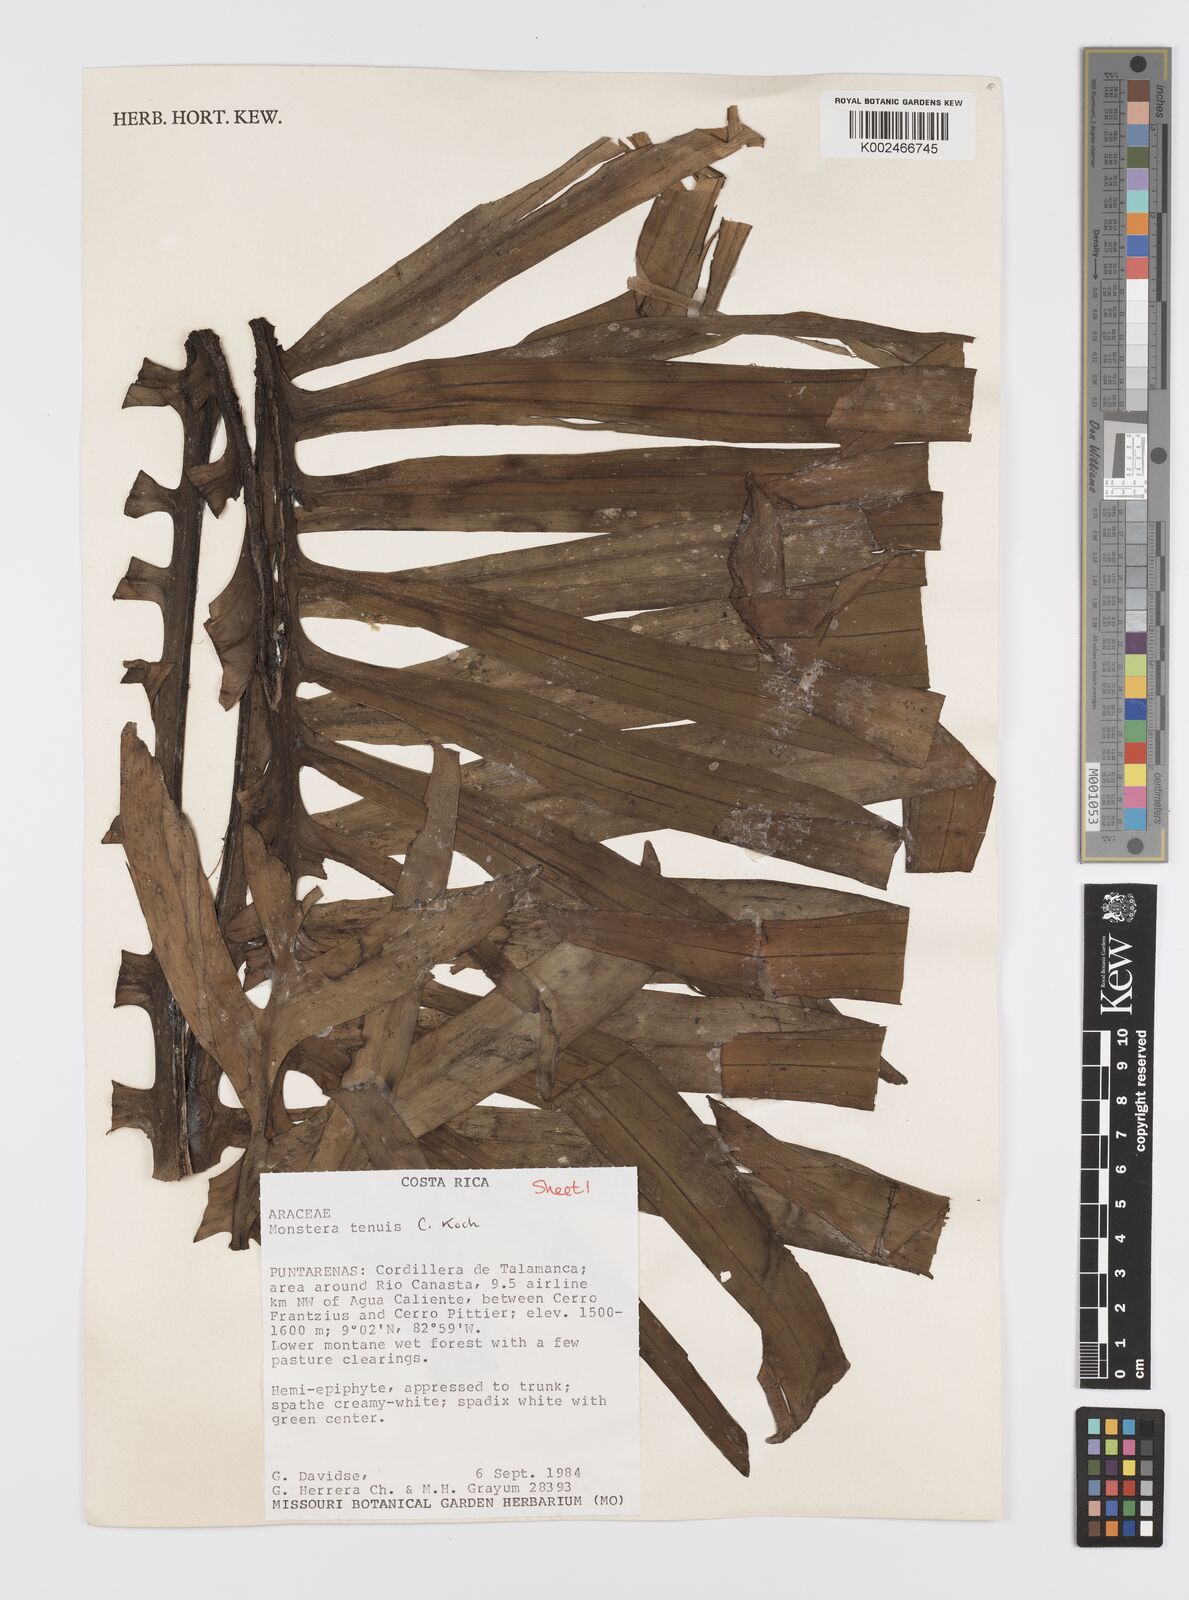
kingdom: Plantae
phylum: Tracheophyta
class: Liliopsida
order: Alismatales
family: Araceae
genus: Monstera
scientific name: Monstera tenuis
